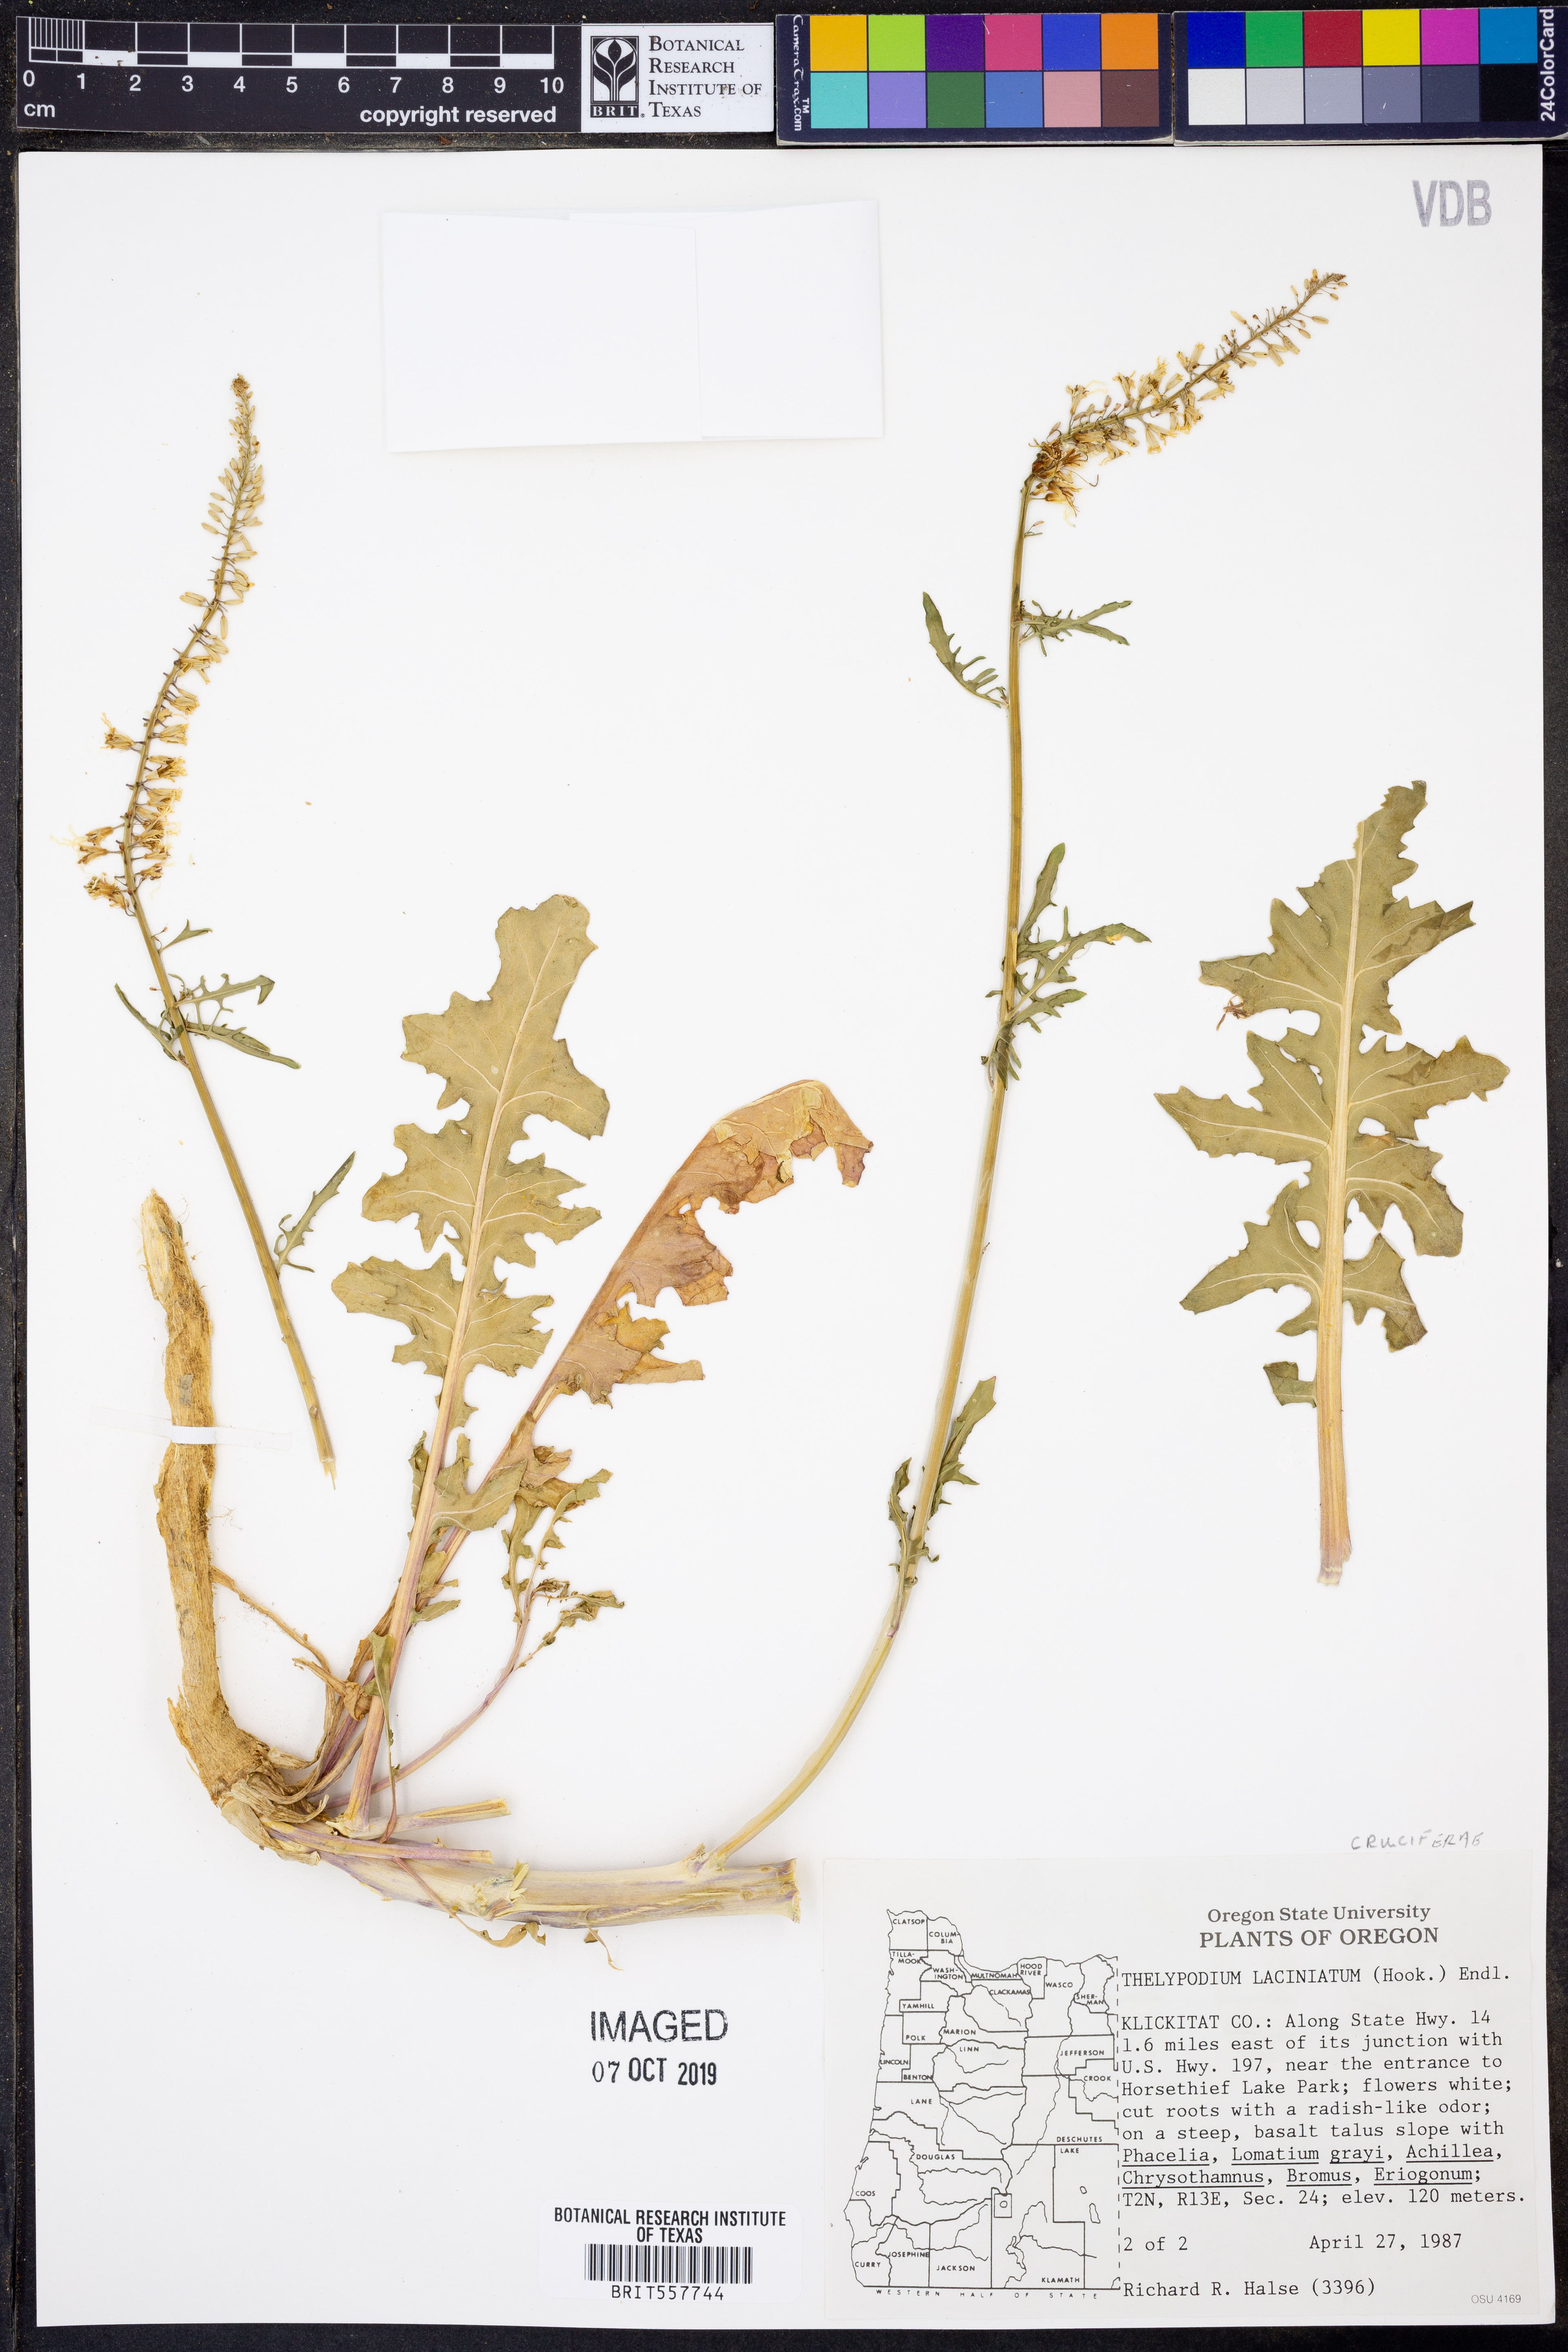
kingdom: Plantae
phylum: Tracheophyta
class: Magnoliopsida
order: Brassicales
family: Brassicaceae
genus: Thelypodium
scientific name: Thelypodium laciniatum
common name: Cut-leaved thelypody
